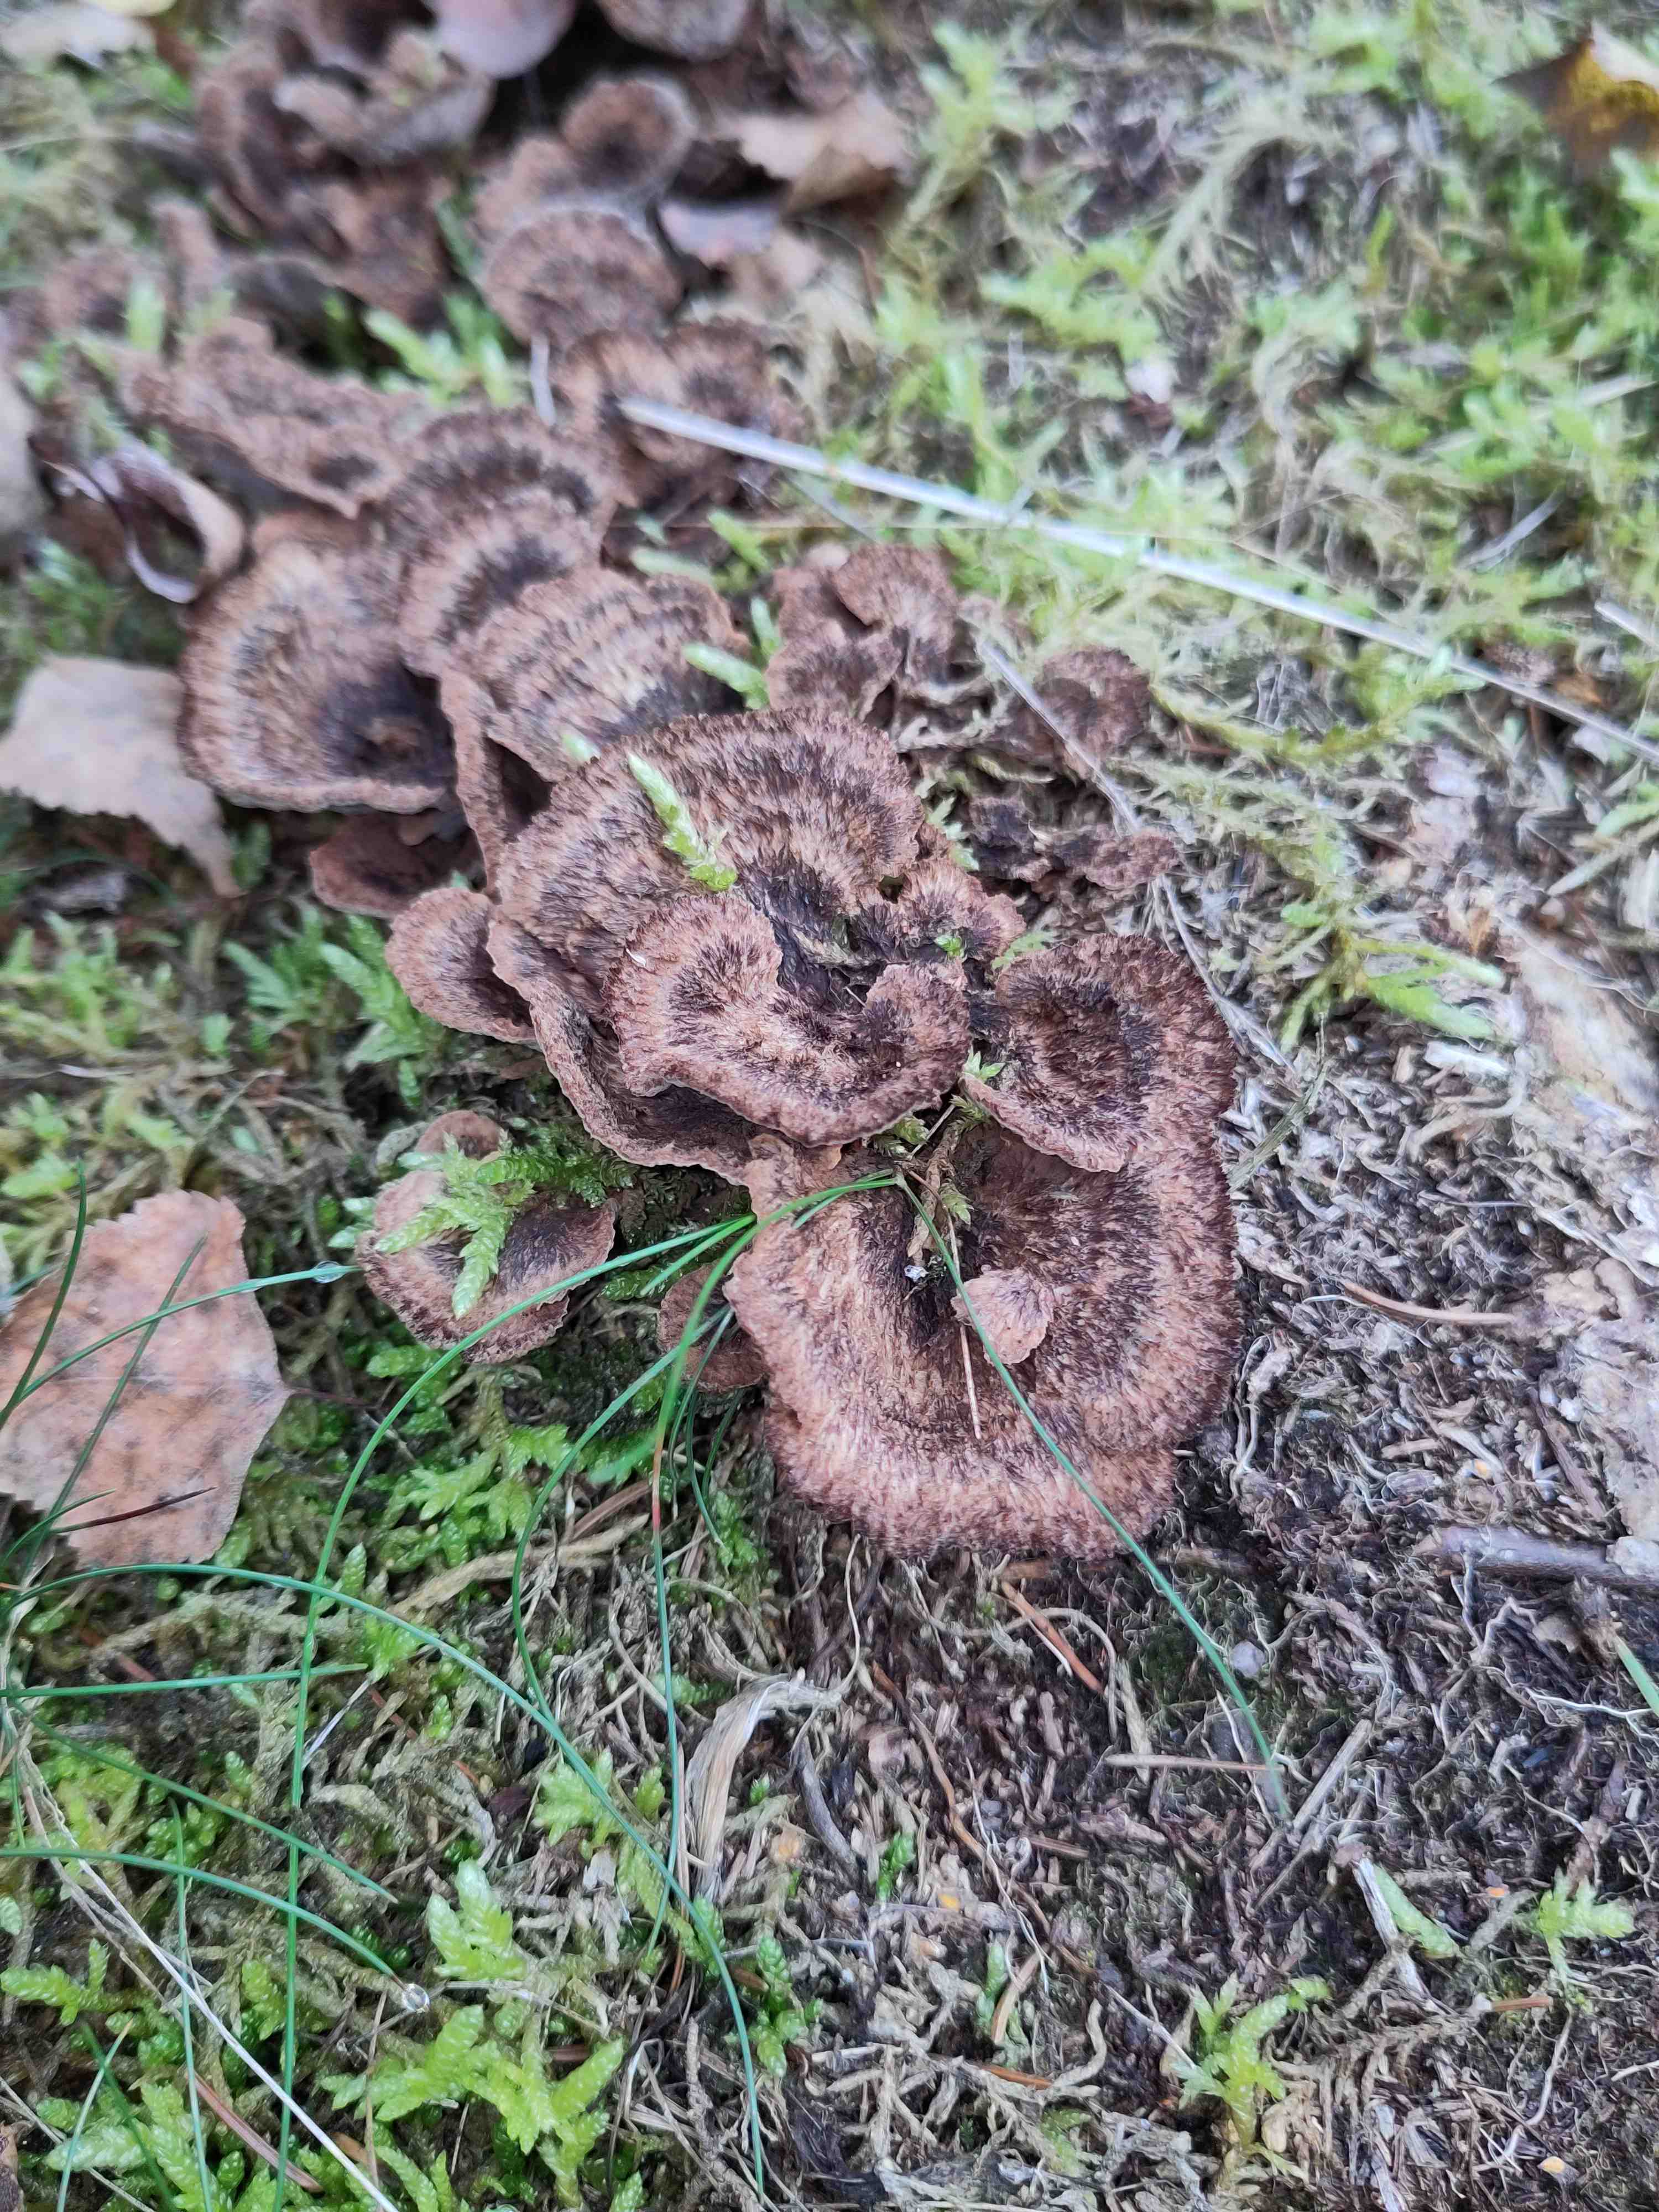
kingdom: Fungi
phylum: Basidiomycota
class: Agaricomycetes
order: Thelephorales
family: Thelephoraceae
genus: Thelephora
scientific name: Thelephora terrestris
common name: fliget frynsesvamp
